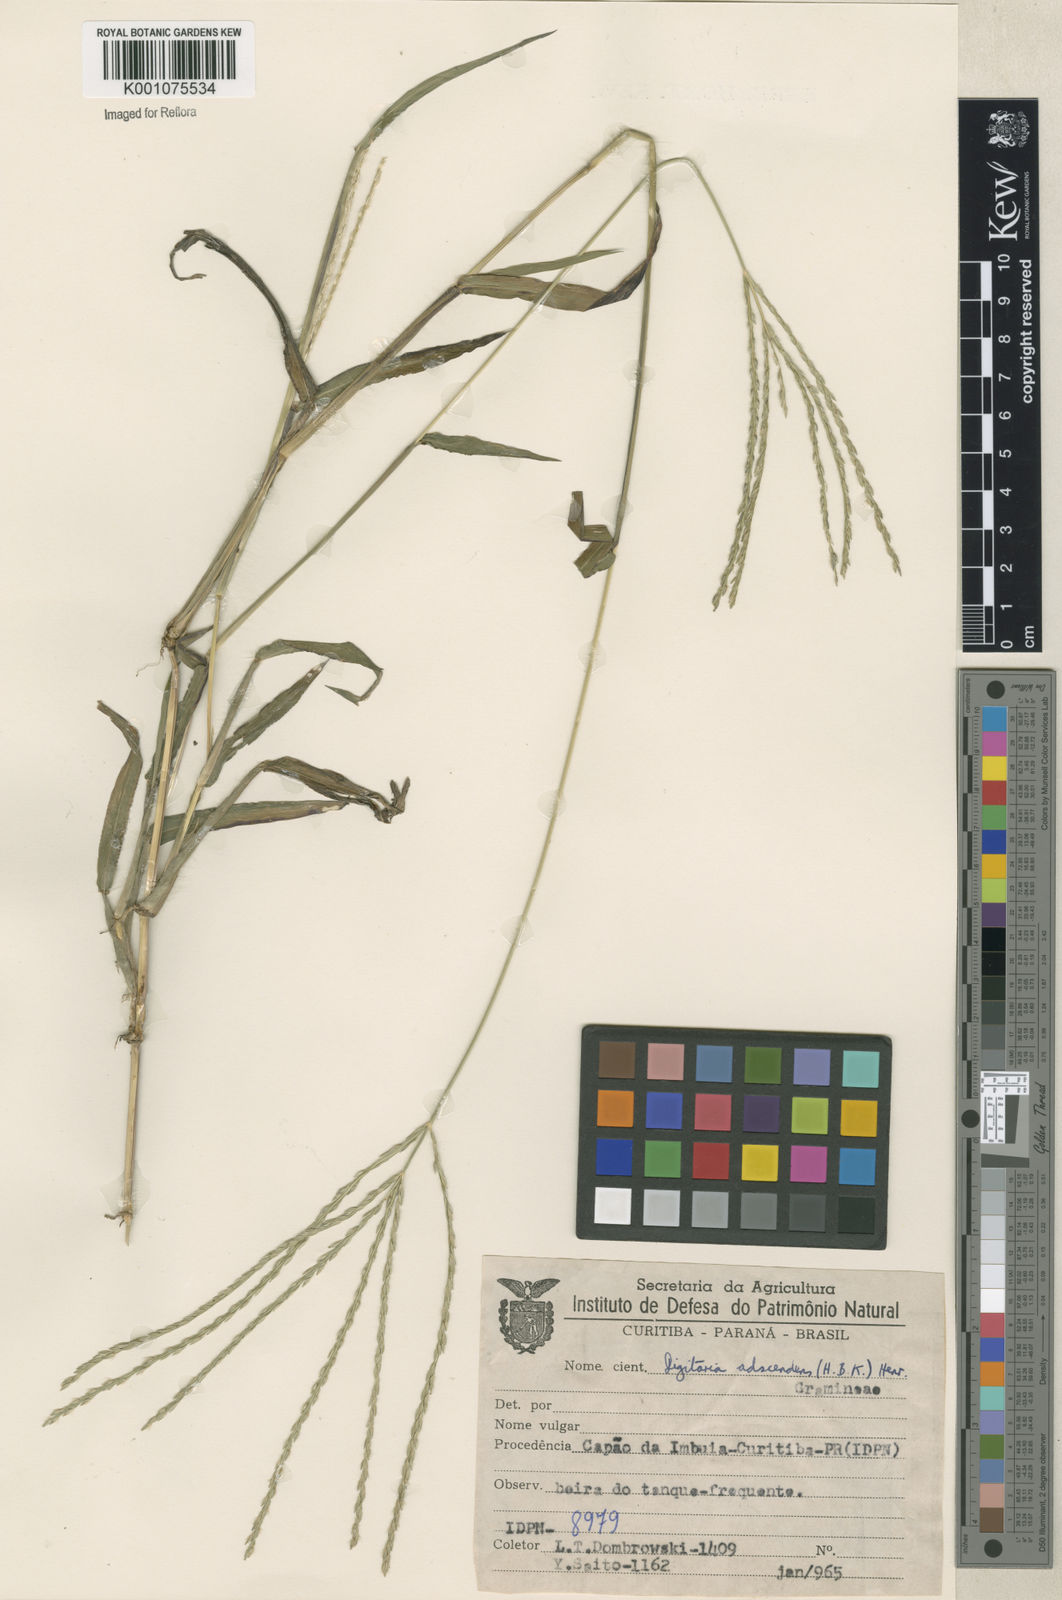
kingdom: Plantae
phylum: Tracheophyta
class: Liliopsida
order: Poales
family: Poaceae
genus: Digitaria
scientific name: Digitaria ciliaris
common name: Tropical finger-grass
